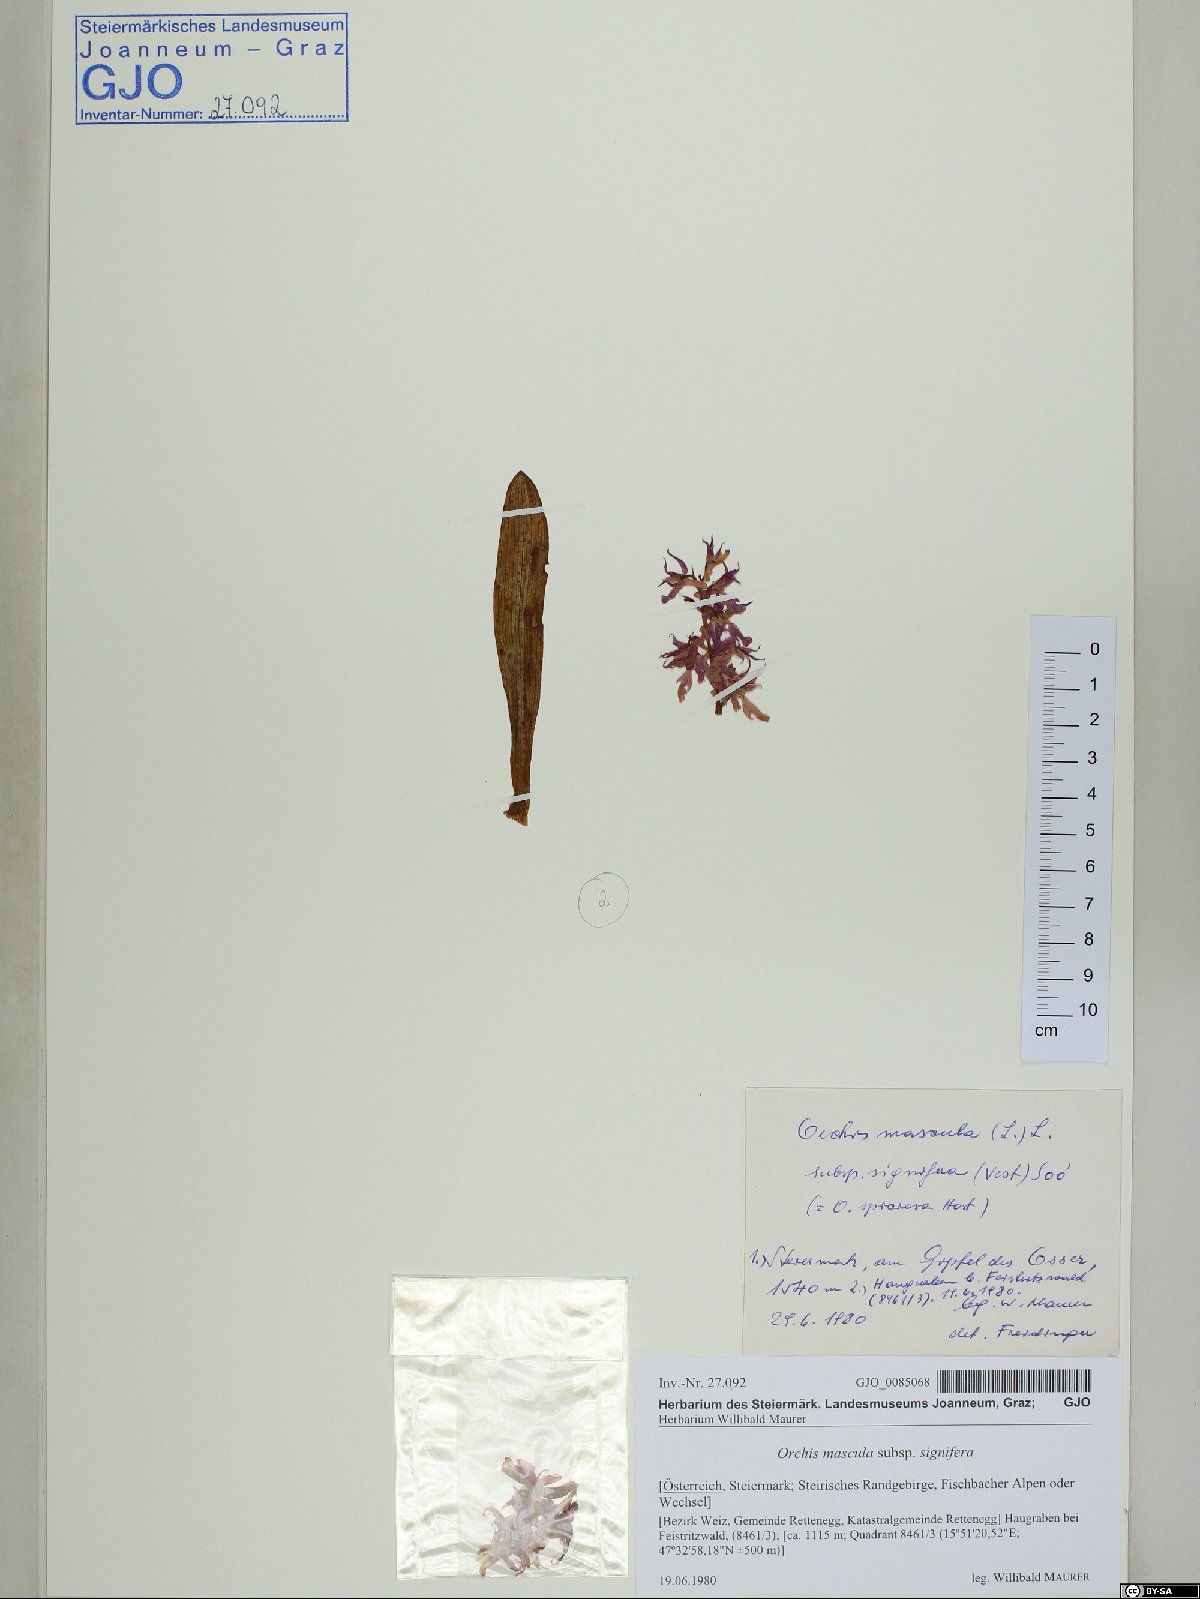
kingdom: Plantae
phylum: Tracheophyta
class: Liliopsida
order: Asparagales
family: Orchidaceae
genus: Orchis
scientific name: Orchis mascula
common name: Early-purple orchid
